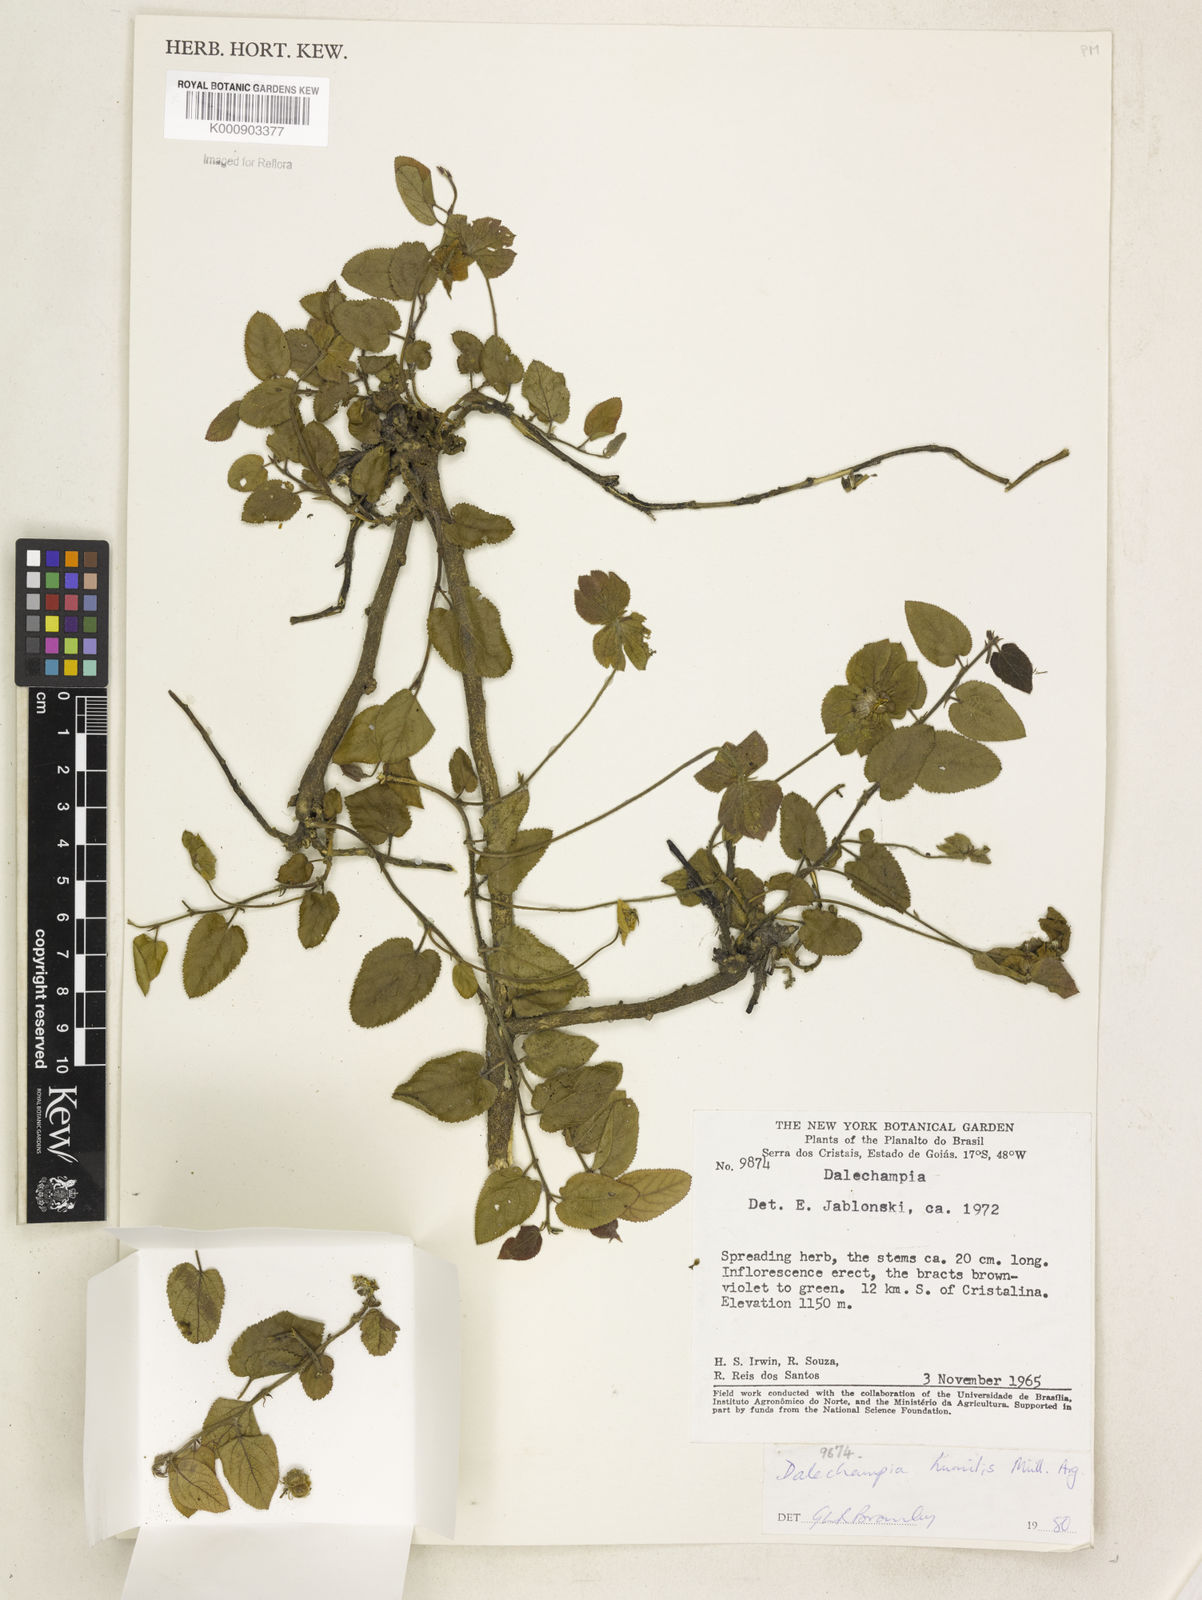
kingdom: Plantae
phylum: Tracheophyta
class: Magnoliopsida
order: Malpighiales
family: Euphorbiaceae
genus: Dalechampia
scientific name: Dalechampia
